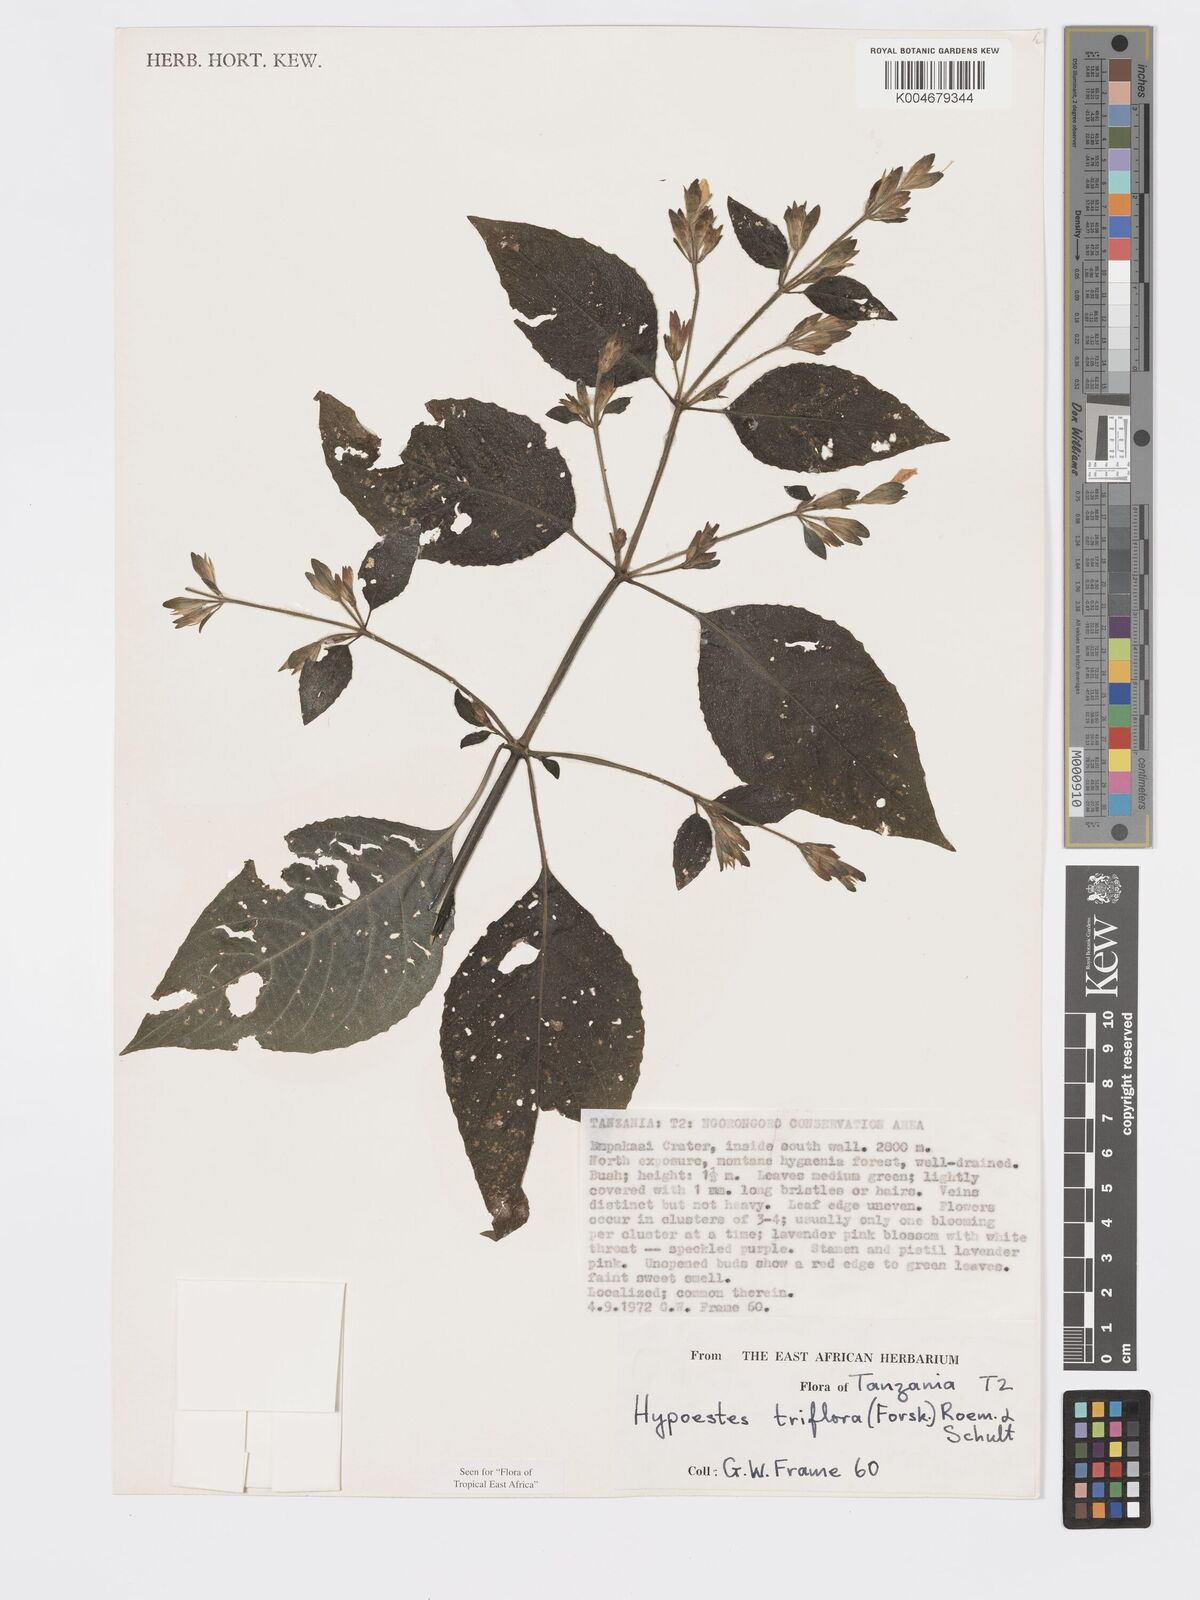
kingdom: Plantae
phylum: Tracheophyta
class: Magnoliopsida
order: Lamiales
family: Acanthaceae
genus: Hypoestes
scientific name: Hypoestes triflora
